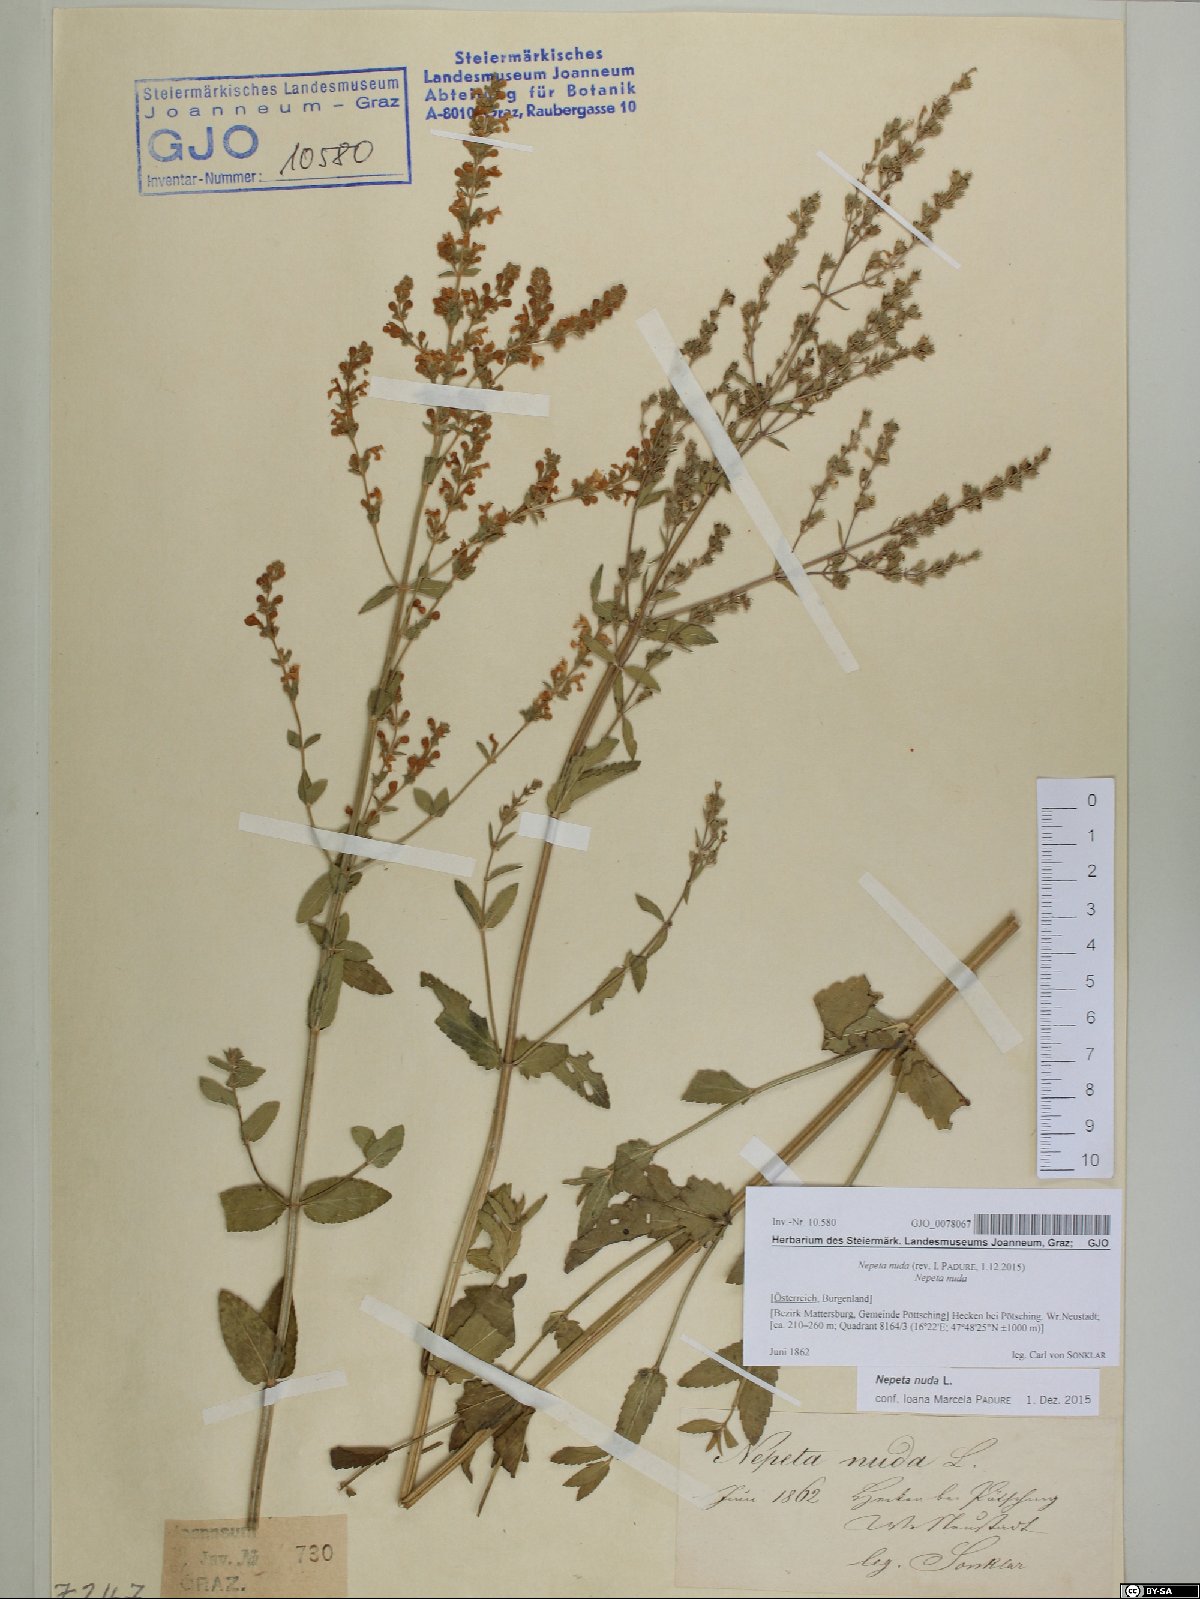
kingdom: Plantae
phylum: Tracheophyta
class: Magnoliopsida
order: Lamiales
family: Lamiaceae
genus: Nepeta
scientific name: Nepeta nuda
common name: Hairless catmint
